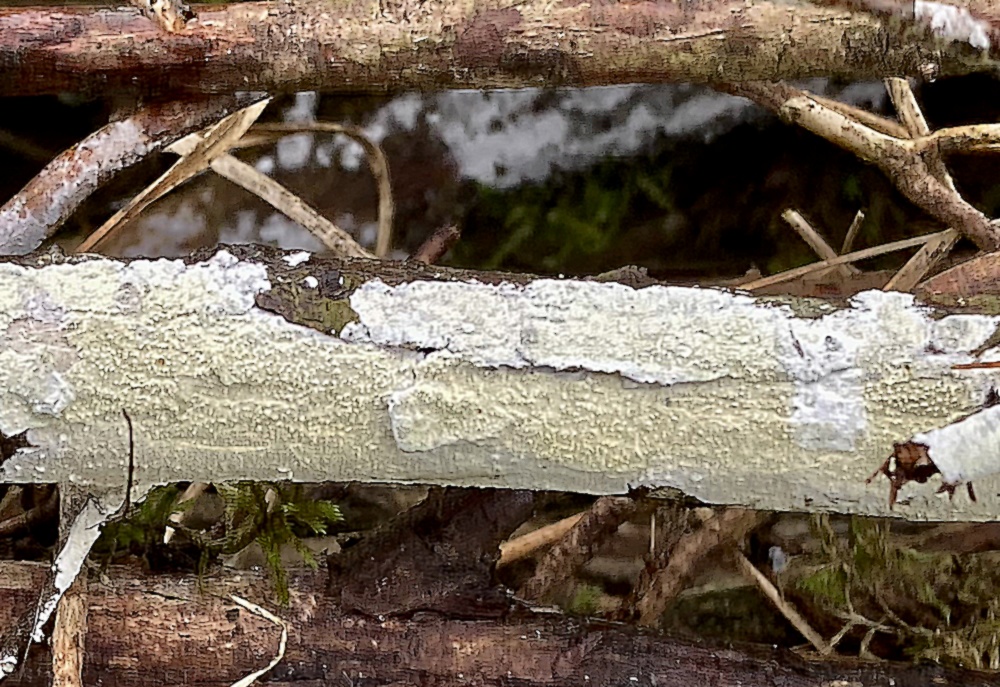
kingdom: Fungi
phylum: Basidiomycota
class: Agaricomycetes
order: Corticiales
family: Corticiaceae
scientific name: Corticiaceae
